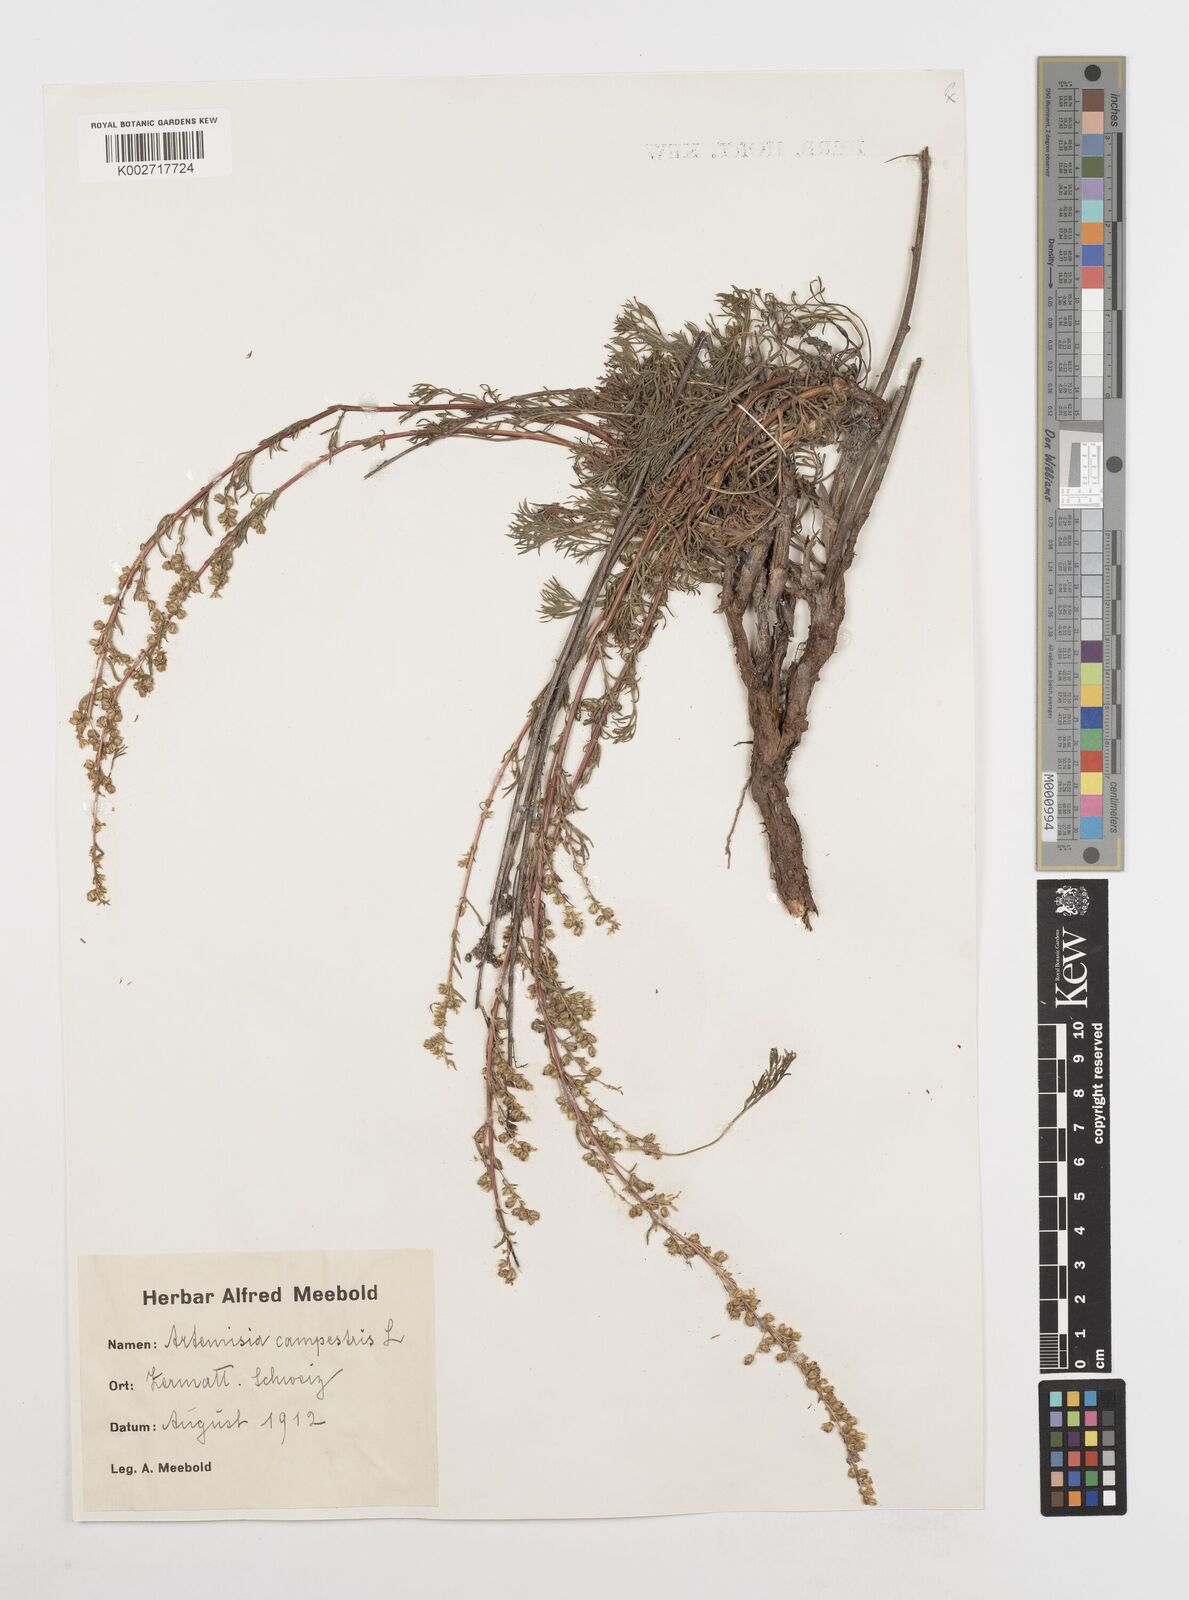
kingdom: Plantae
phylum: Tracheophyta
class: Magnoliopsida
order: Asterales
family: Asteraceae
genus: Artemisia
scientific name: Artemisia campestris
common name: Field wormwood
